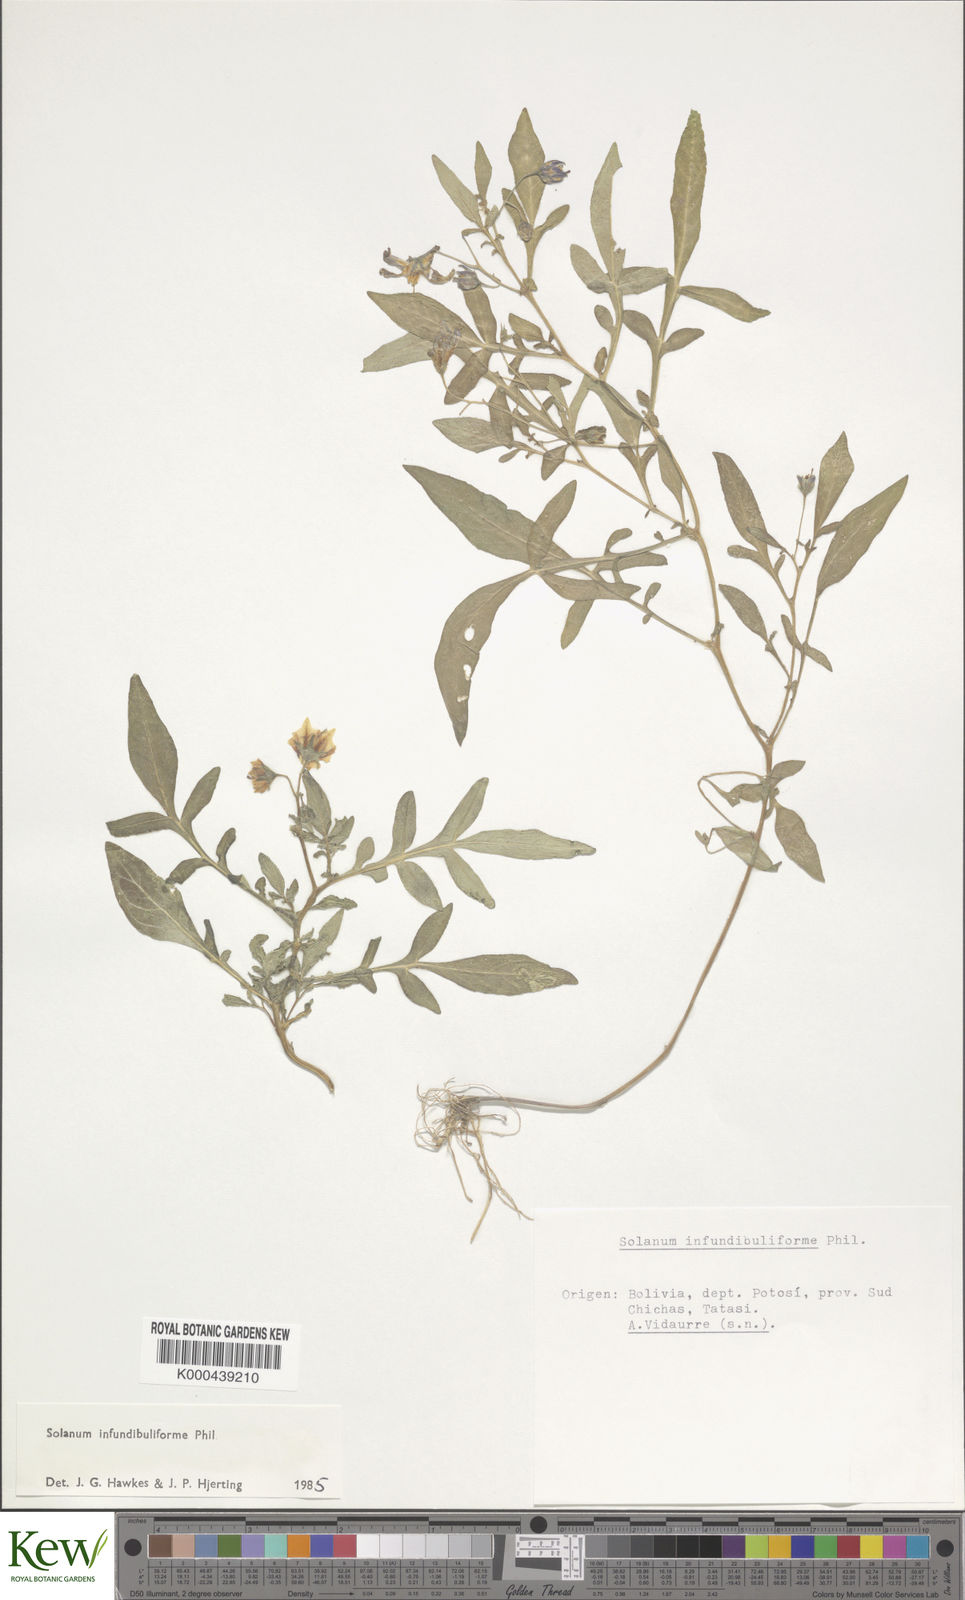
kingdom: Plantae
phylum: Tracheophyta
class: Magnoliopsida
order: Solanales
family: Solanaceae
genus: Solanum
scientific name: Solanum infundibuliforme
